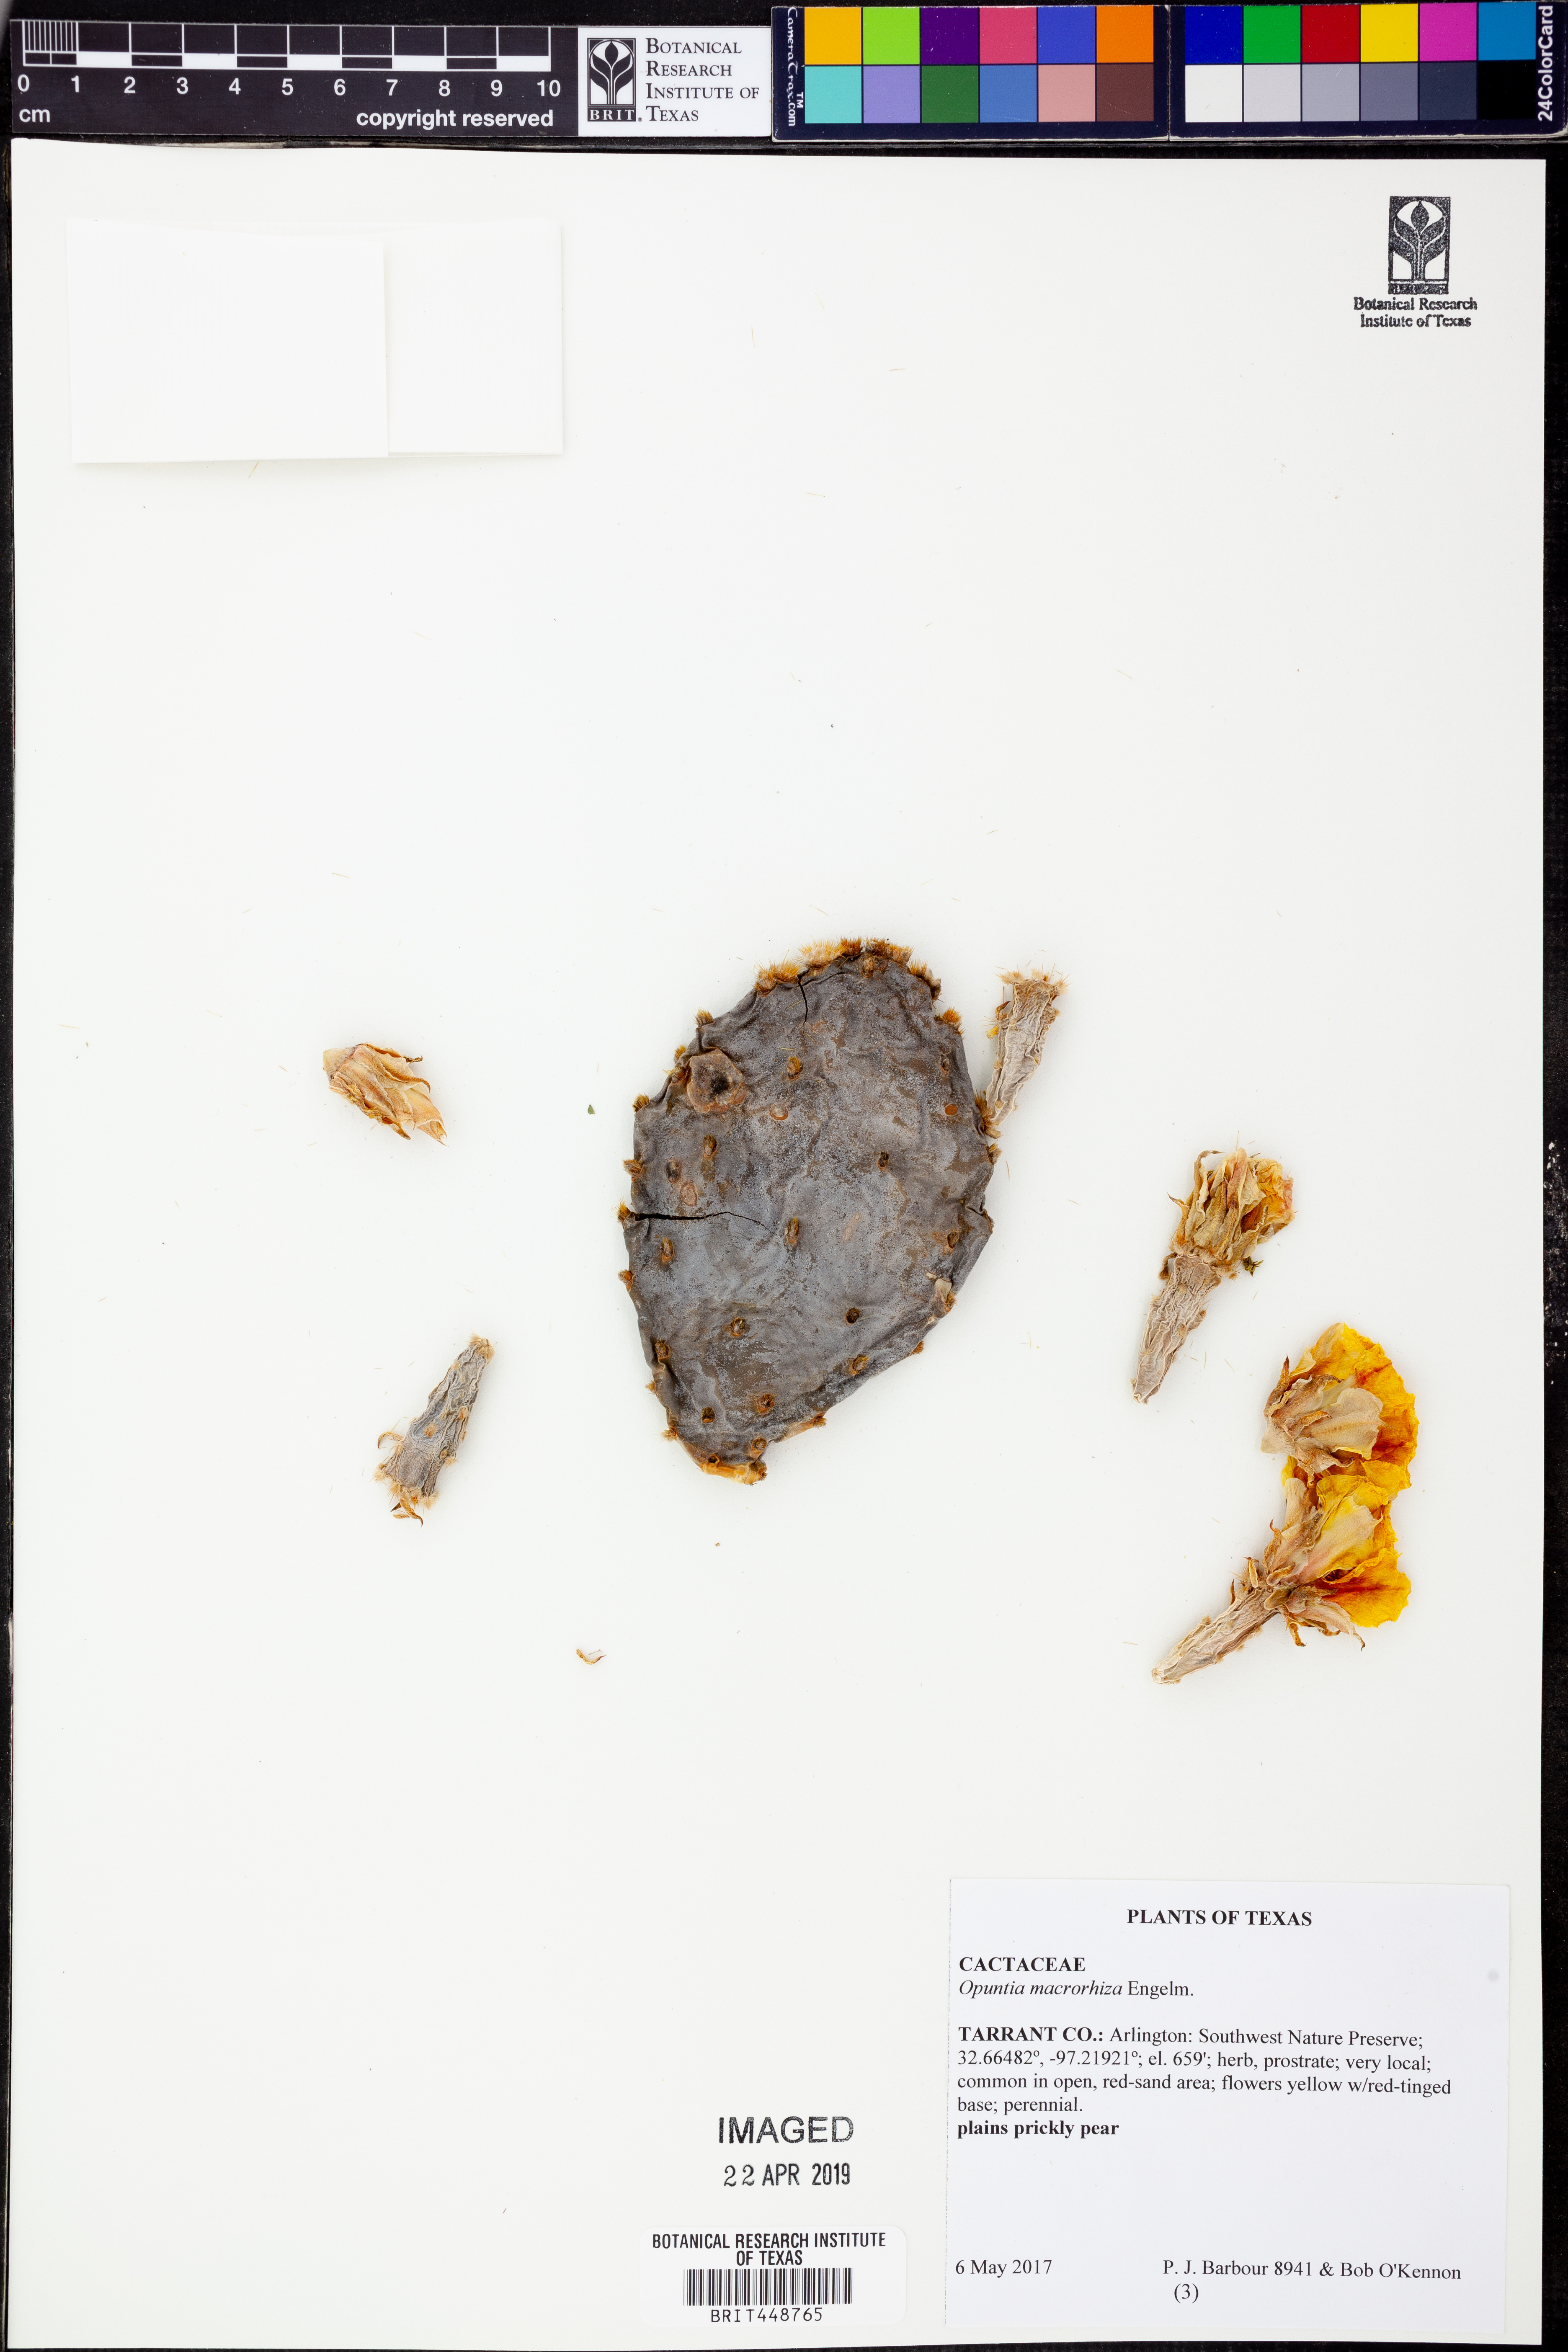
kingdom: Plantae
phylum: Tracheophyta
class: Magnoliopsida
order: Caryophyllales
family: Cactaceae
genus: Opuntia
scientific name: Opuntia macrorhiza
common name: Grassland pricklypear
